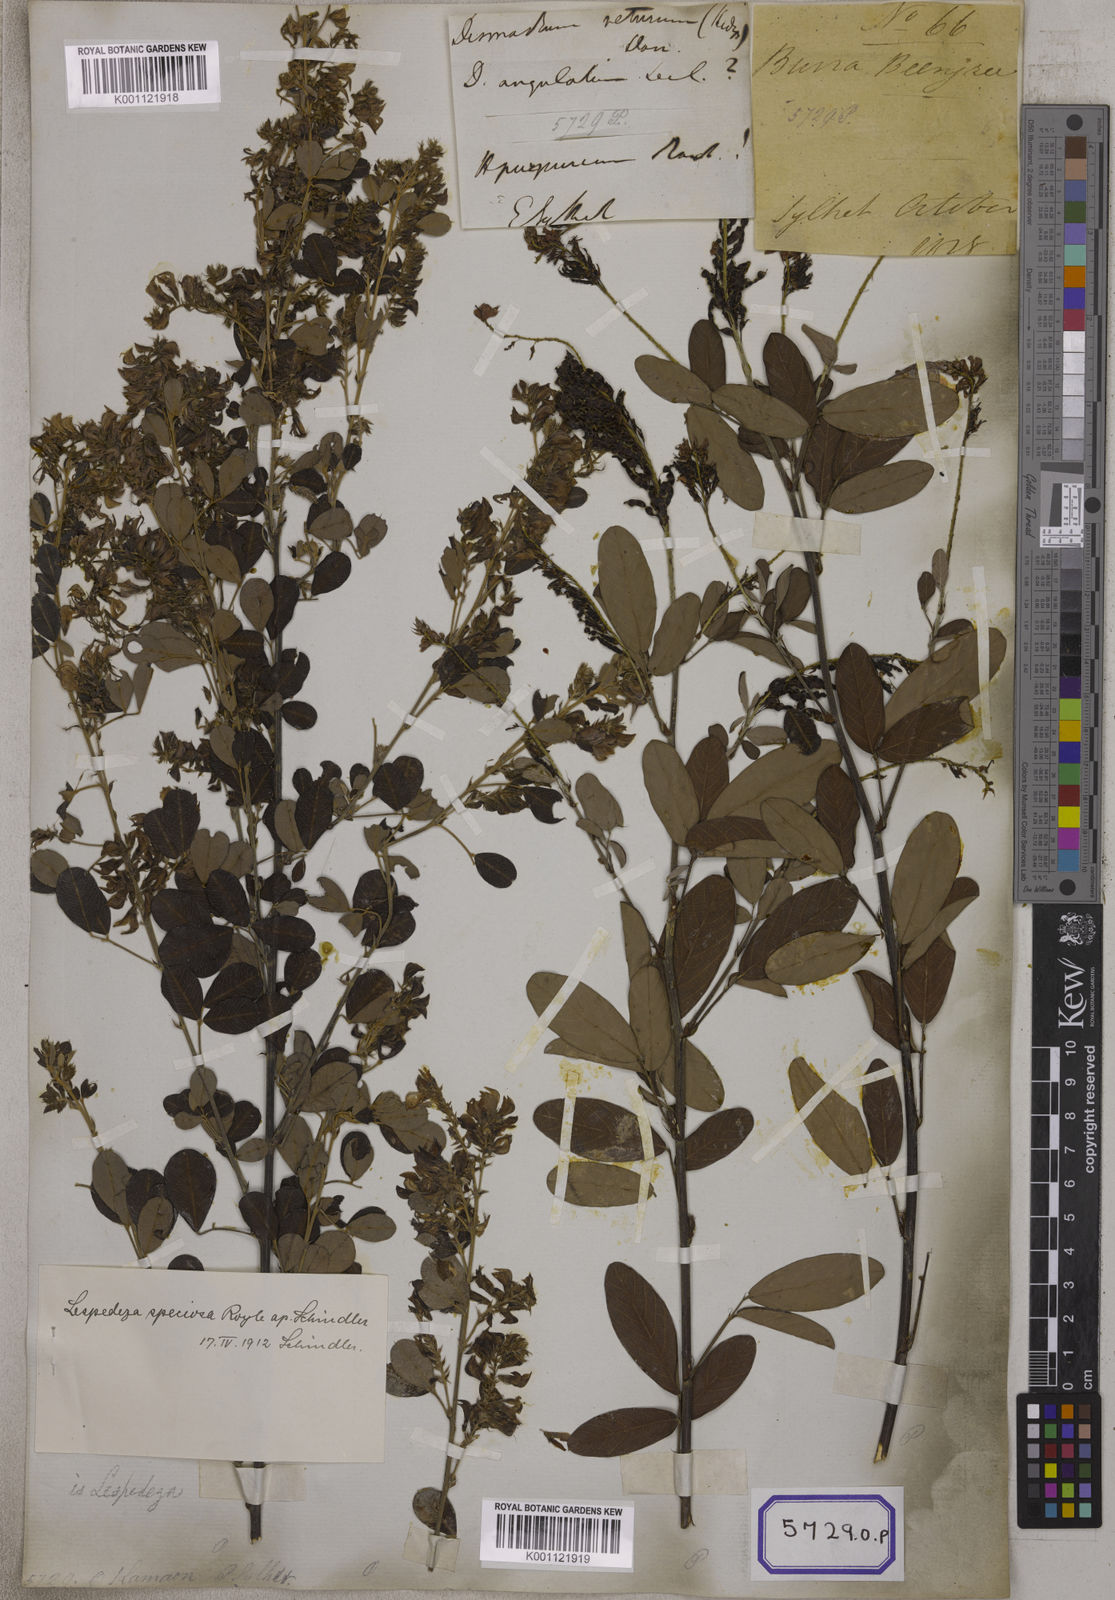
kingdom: Plantae
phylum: Tracheophyta
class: Magnoliopsida
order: Fabales
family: Fabaceae
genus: Desmodium
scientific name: Desmodium
